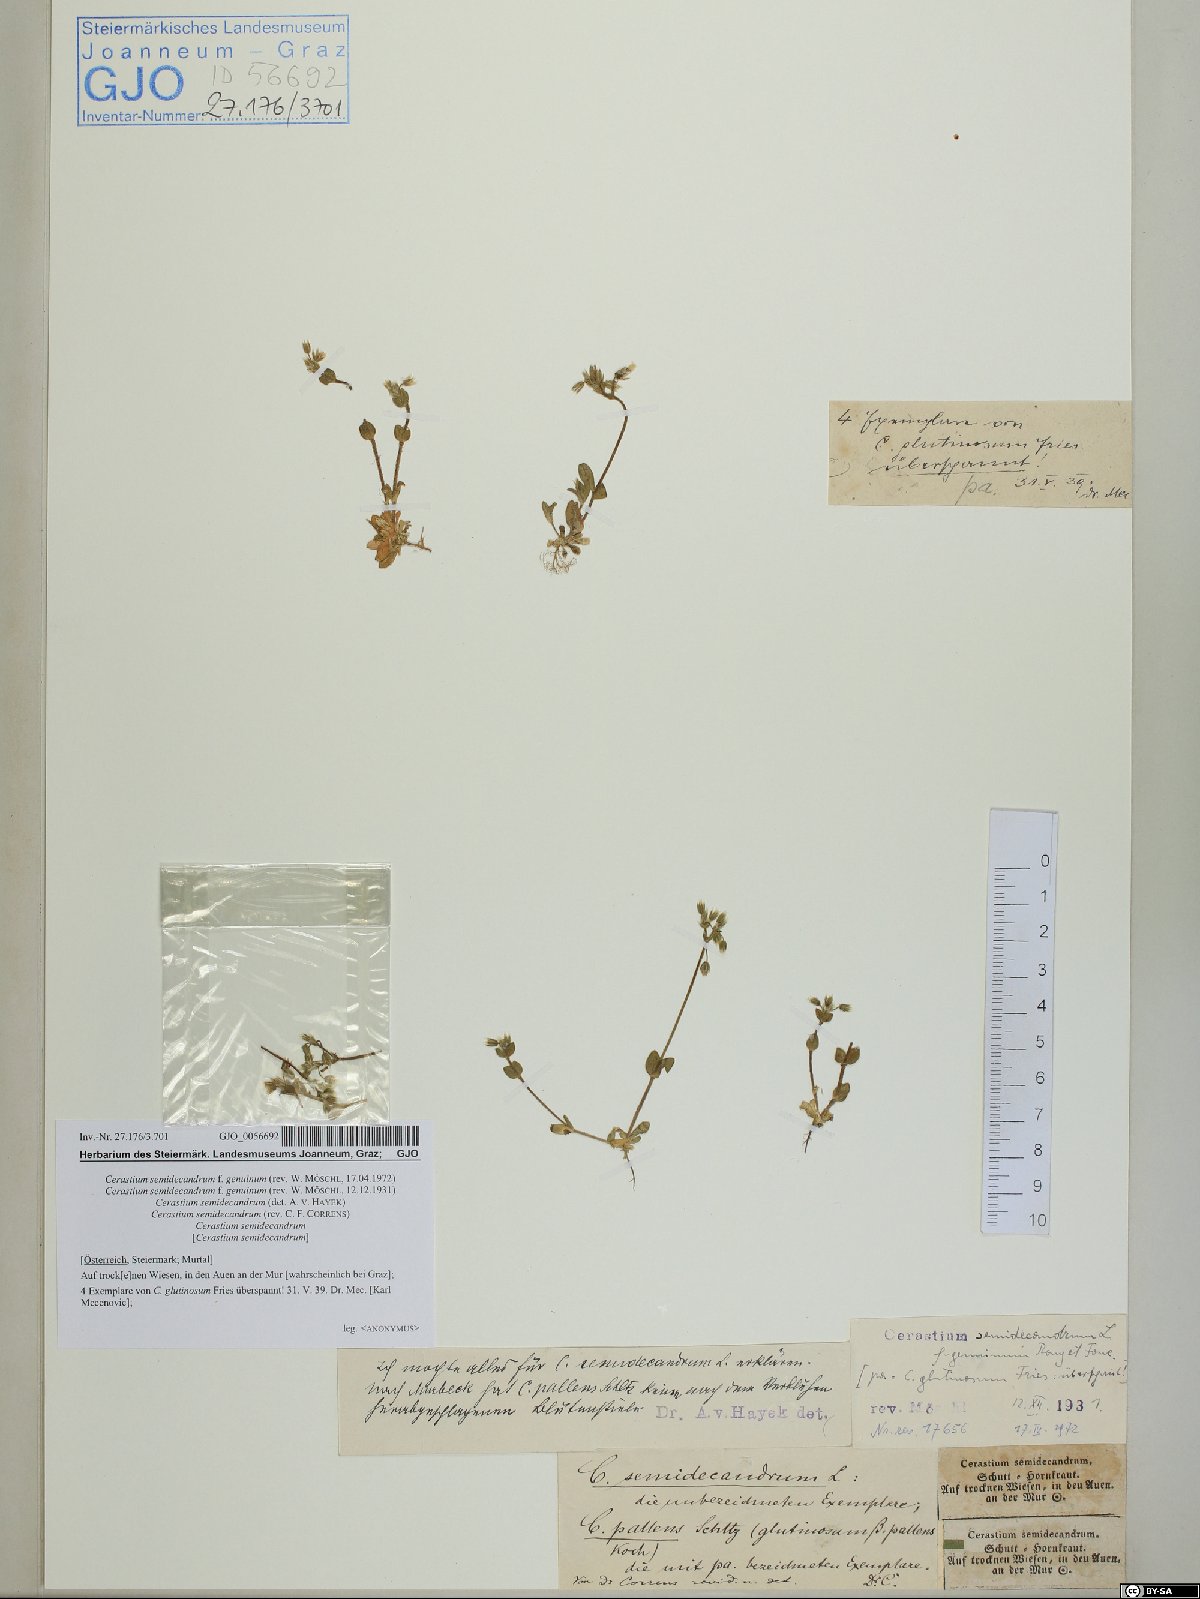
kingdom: Plantae
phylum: Tracheophyta
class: Magnoliopsida
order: Caryophyllales
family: Caryophyllaceae
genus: Cerastium
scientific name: Cerastium semidecandrum
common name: Little mouse-ear
